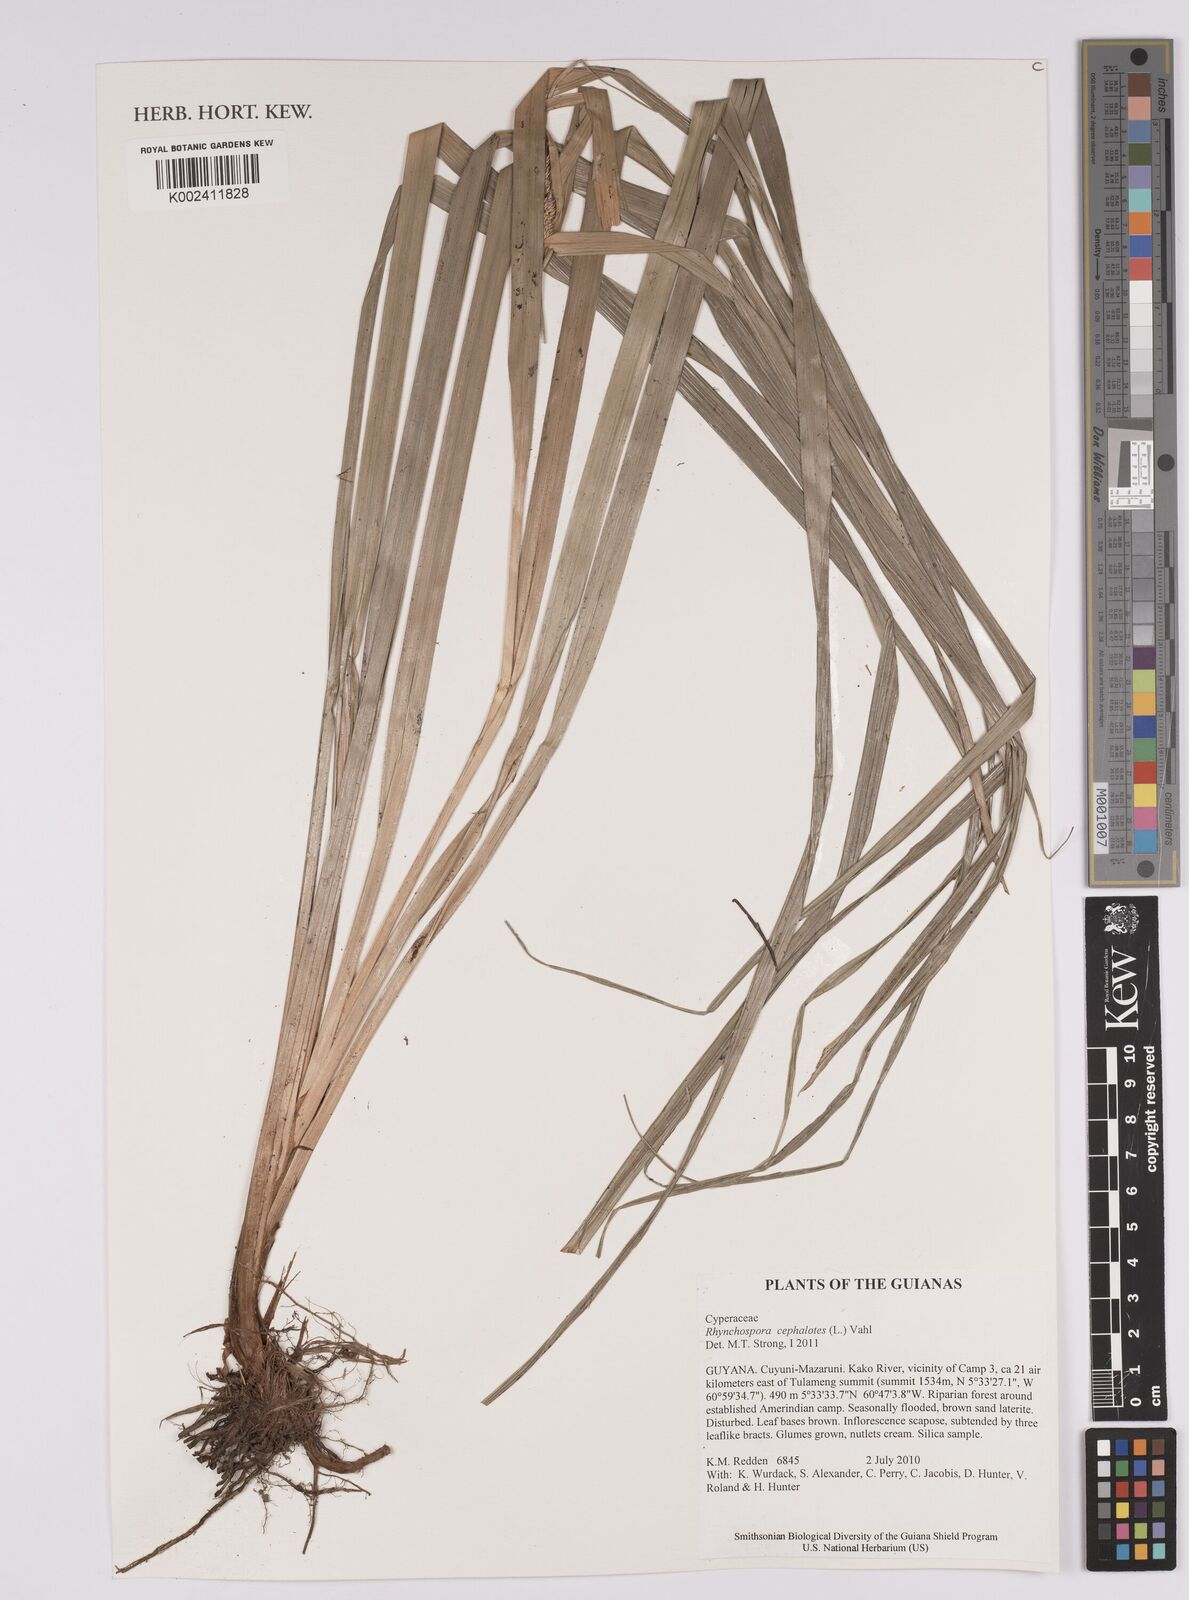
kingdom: Plantae
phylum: Tracheophyta
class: Liliopsida
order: Poales
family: Cyperaceae
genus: Rhynchospora
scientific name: Rhynchospora cephalotes
